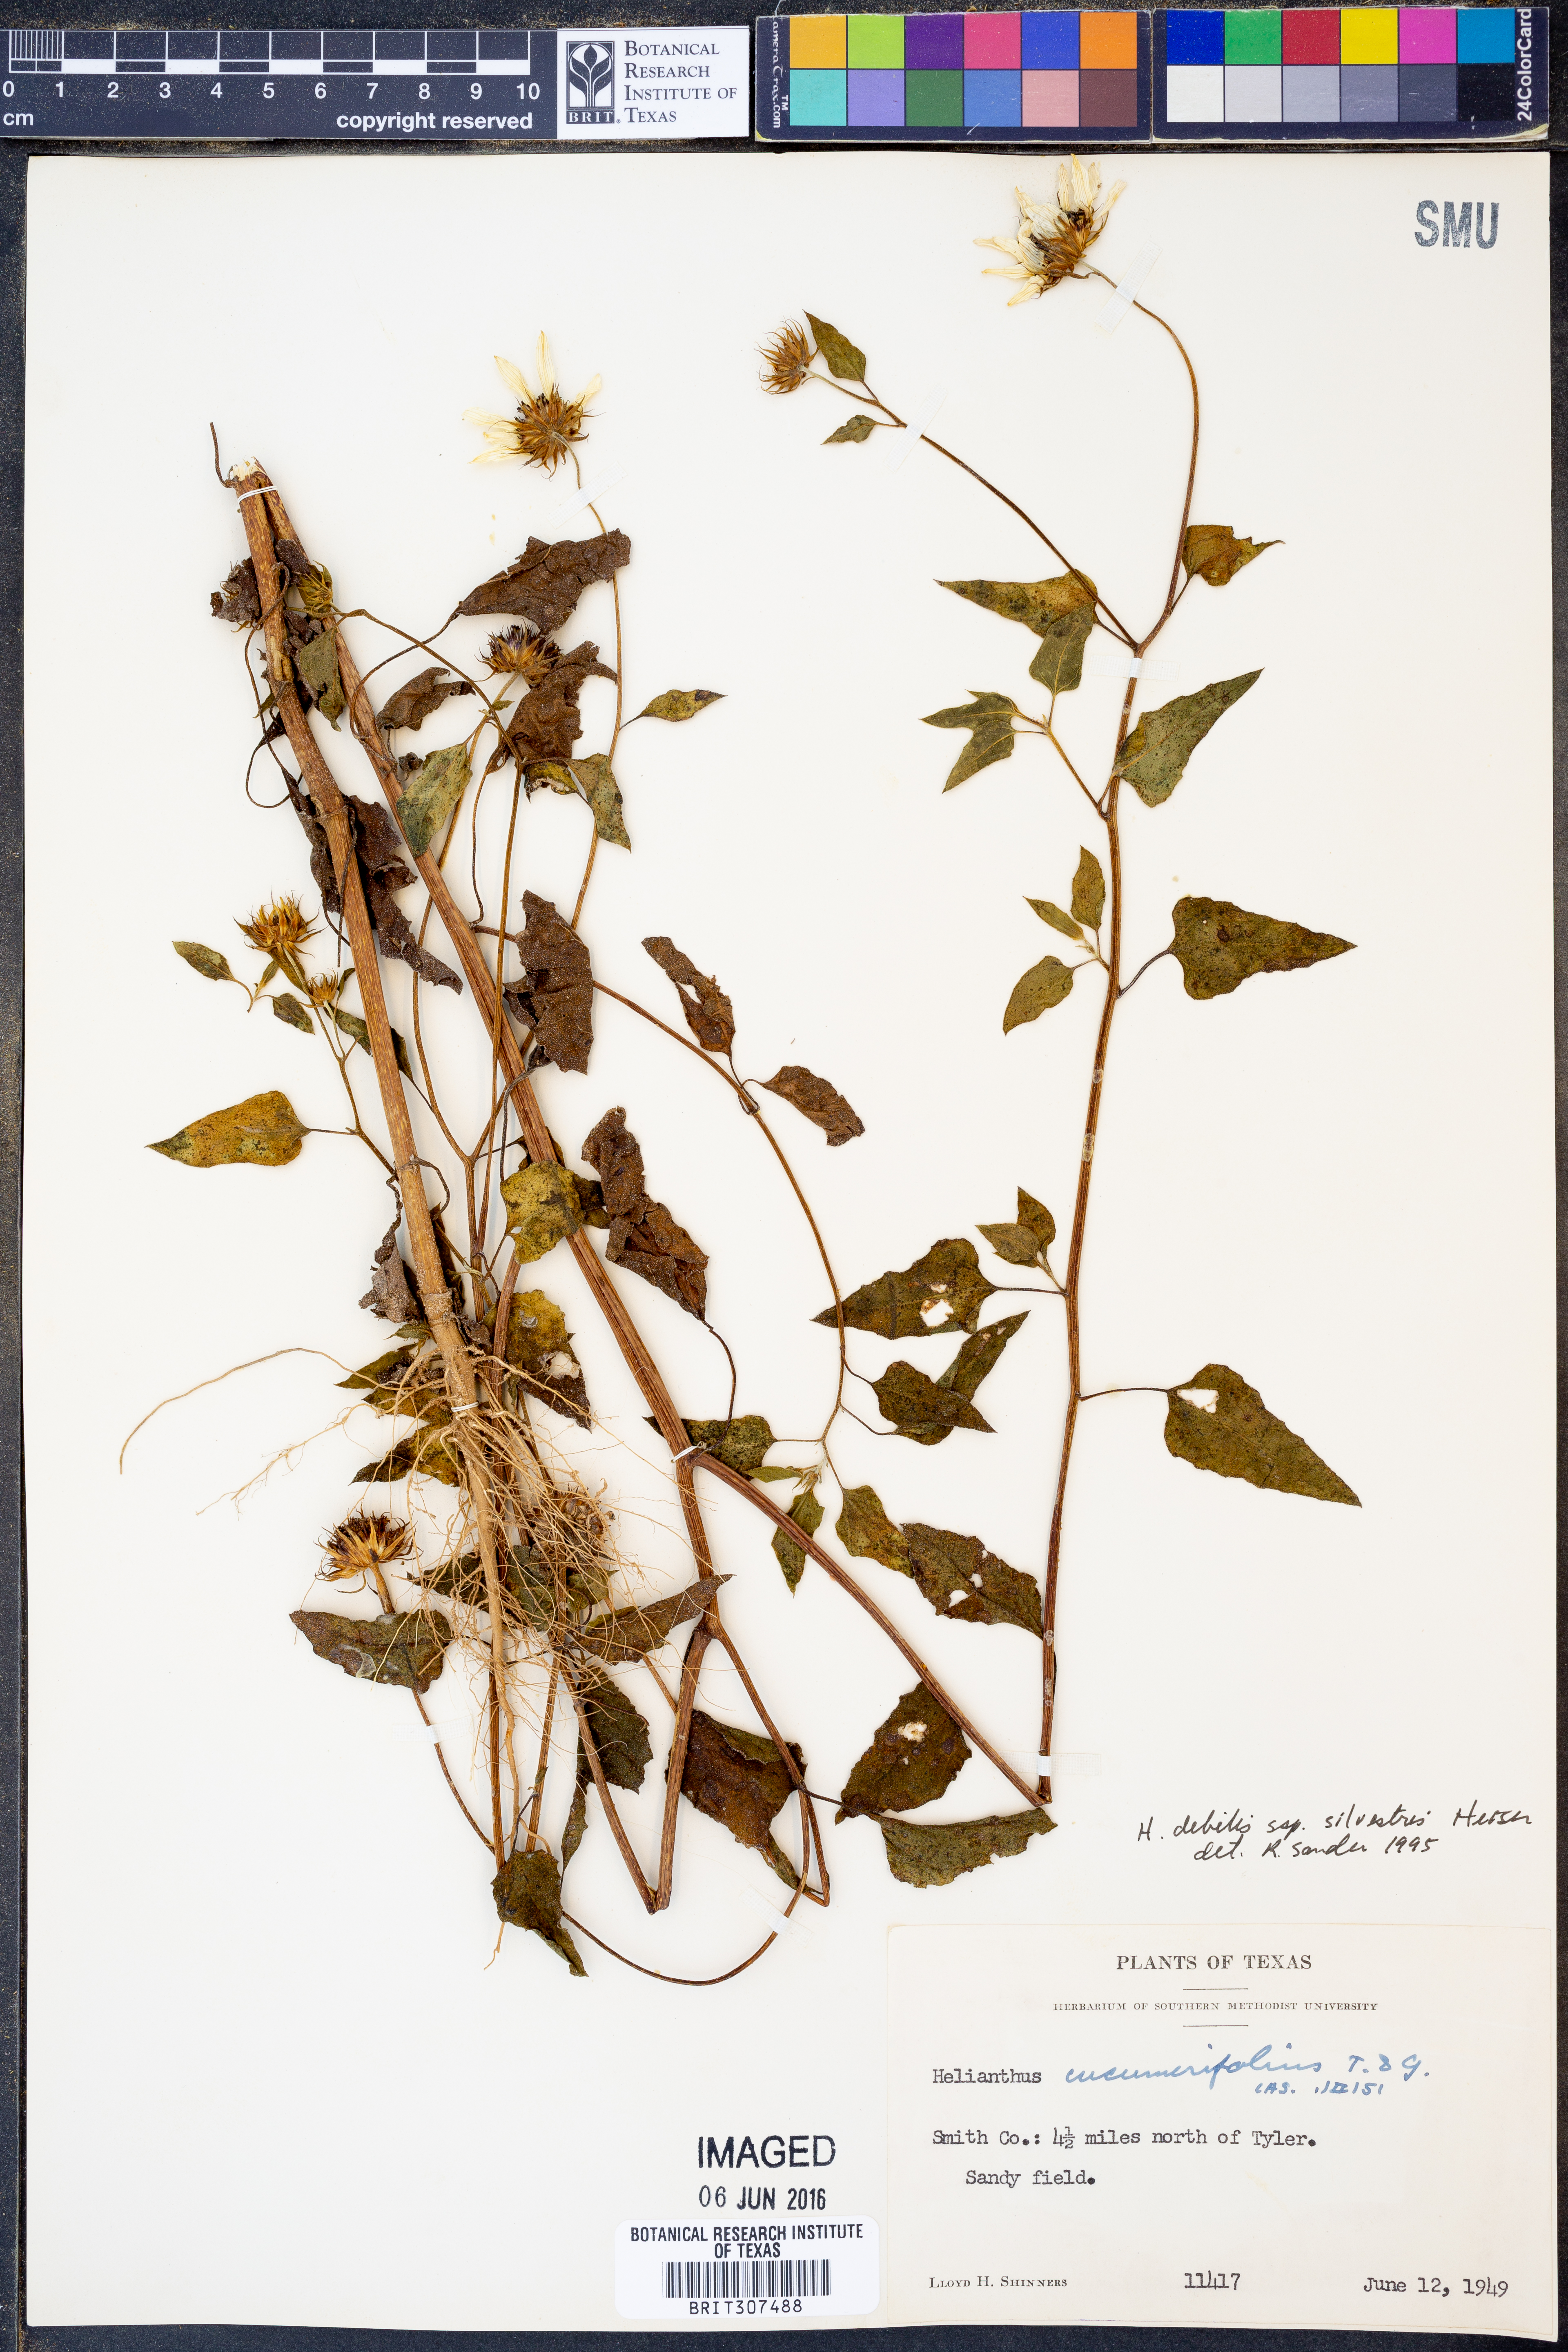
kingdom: Plantae
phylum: Tracheophyta
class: Magnoliopsida
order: Asterales
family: Asteraceae
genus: Helianthus
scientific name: Helianthus debilis
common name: Weak sunflower
